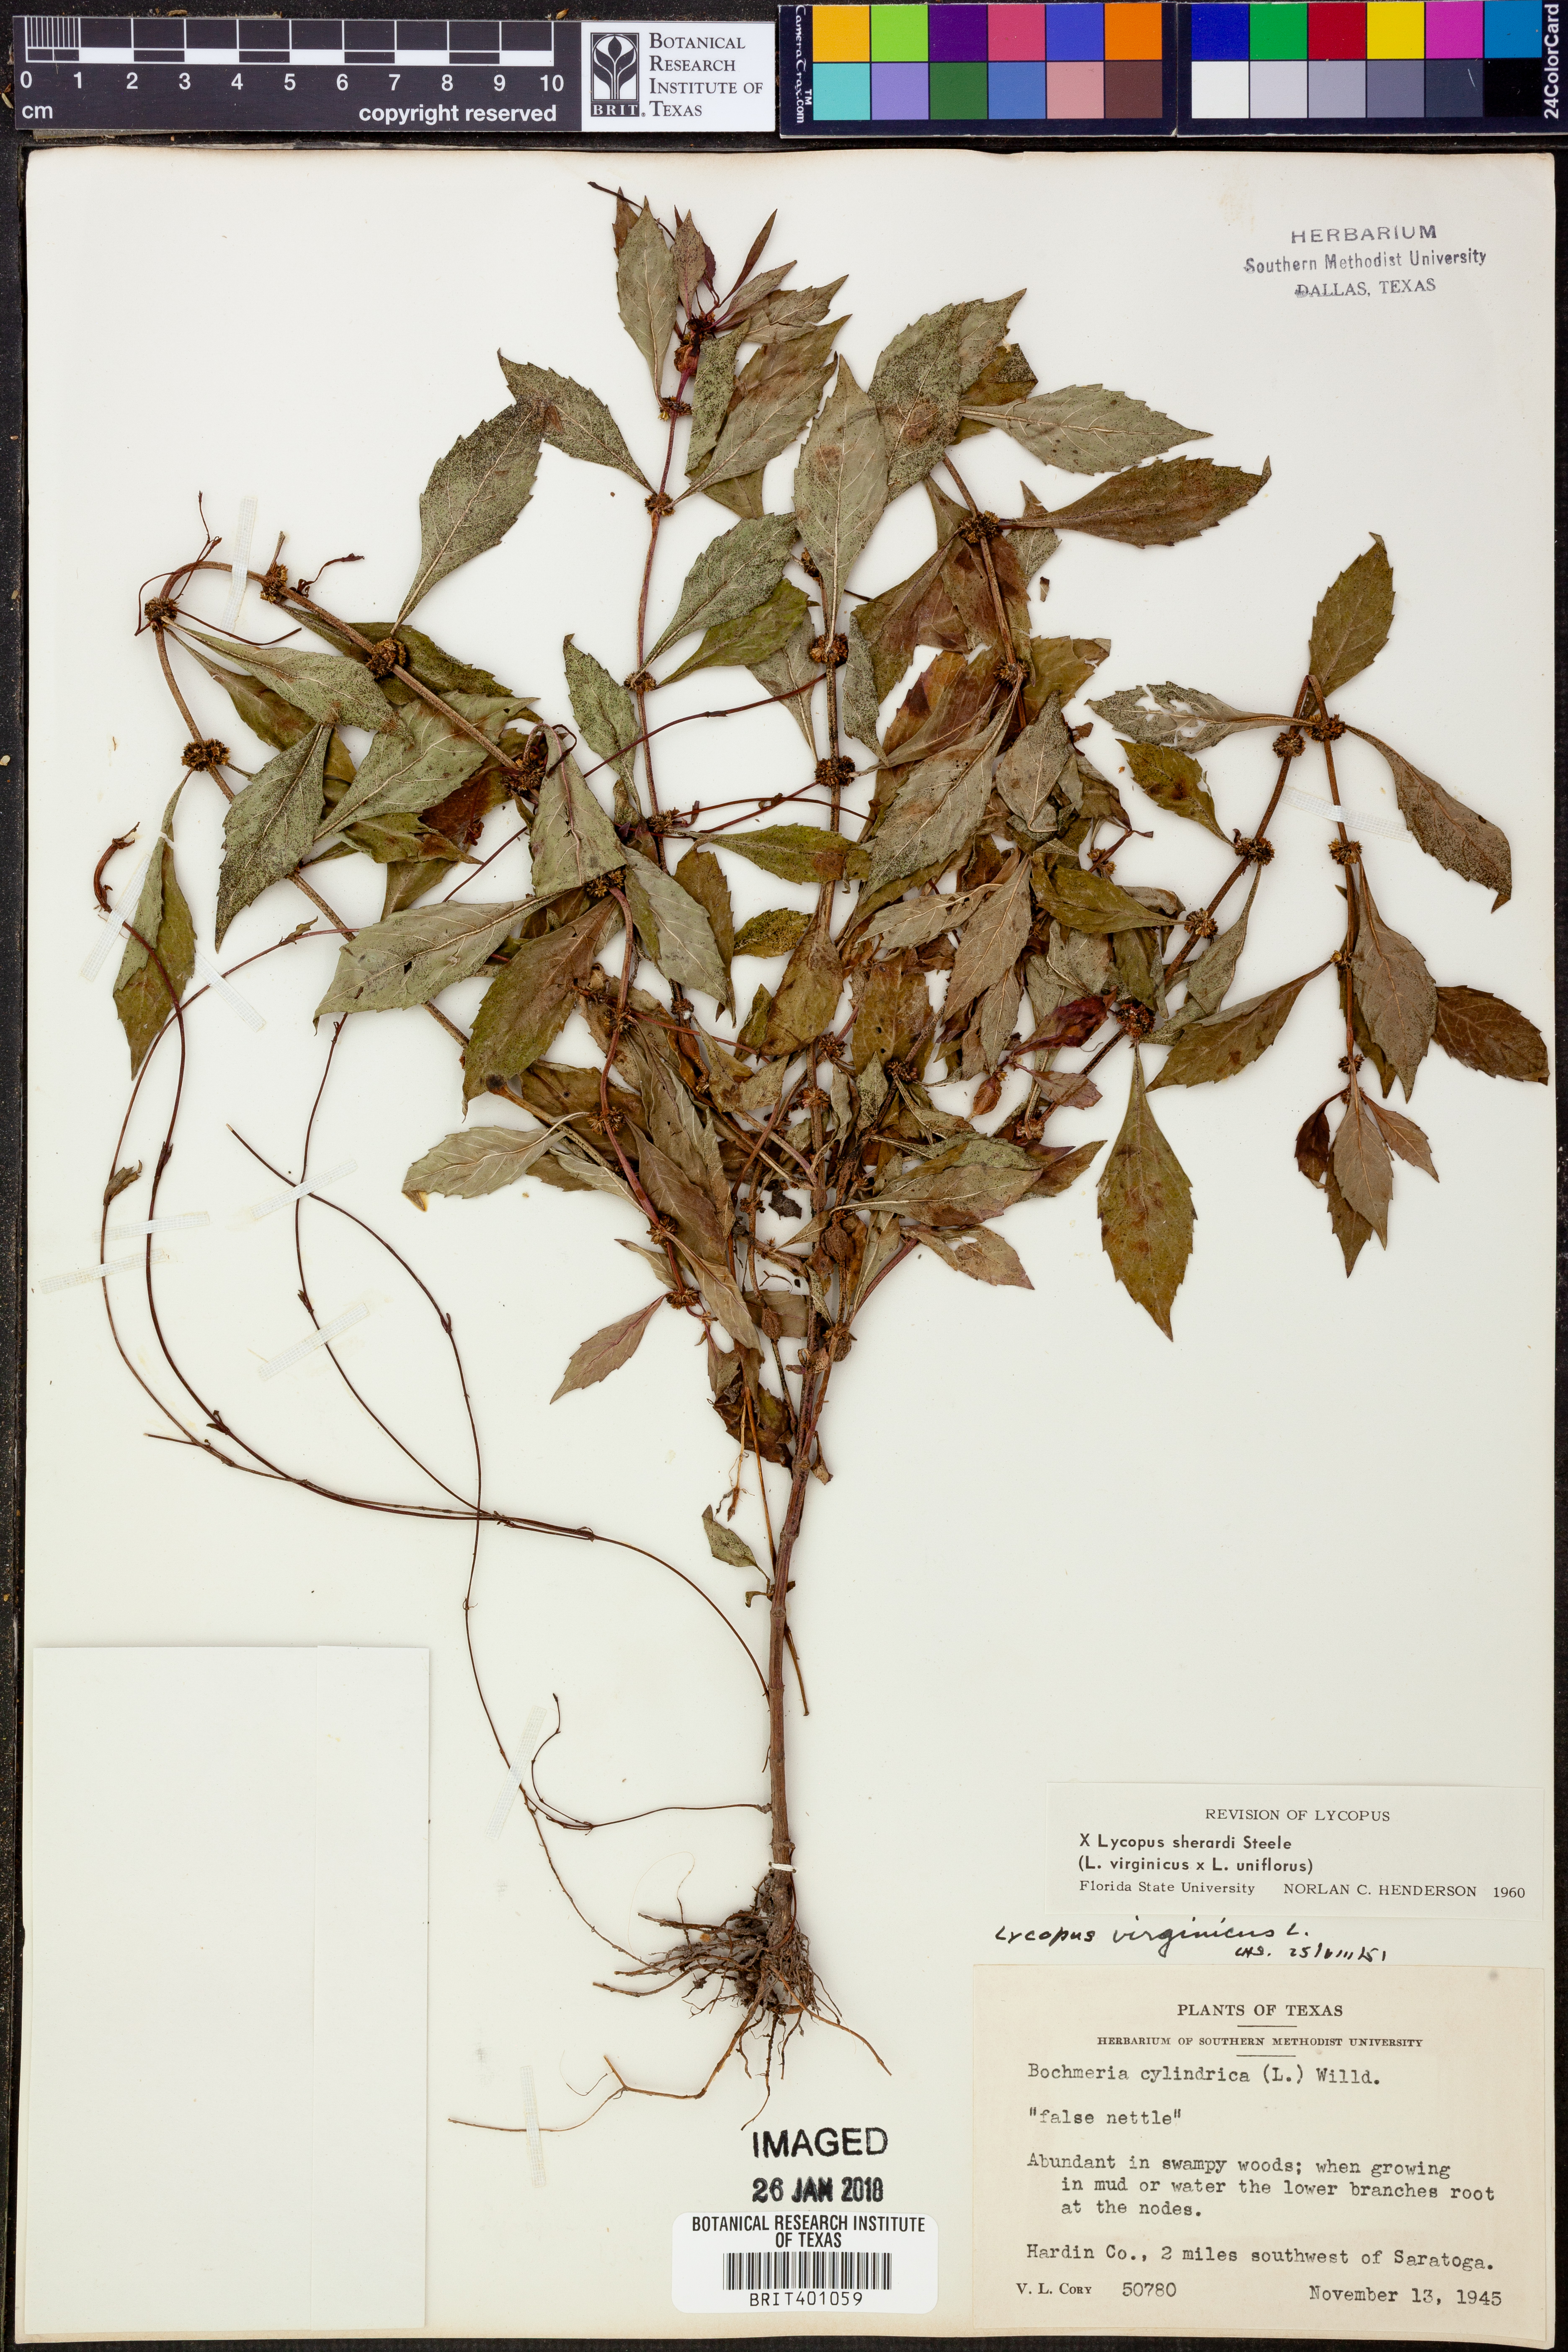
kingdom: Plantae
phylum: Tracheophyta
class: Magnoliopsida
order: Lamiales
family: Lamiaceae
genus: Lycopus
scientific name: Lycopus sherardii
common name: Sherard's water-horehound
